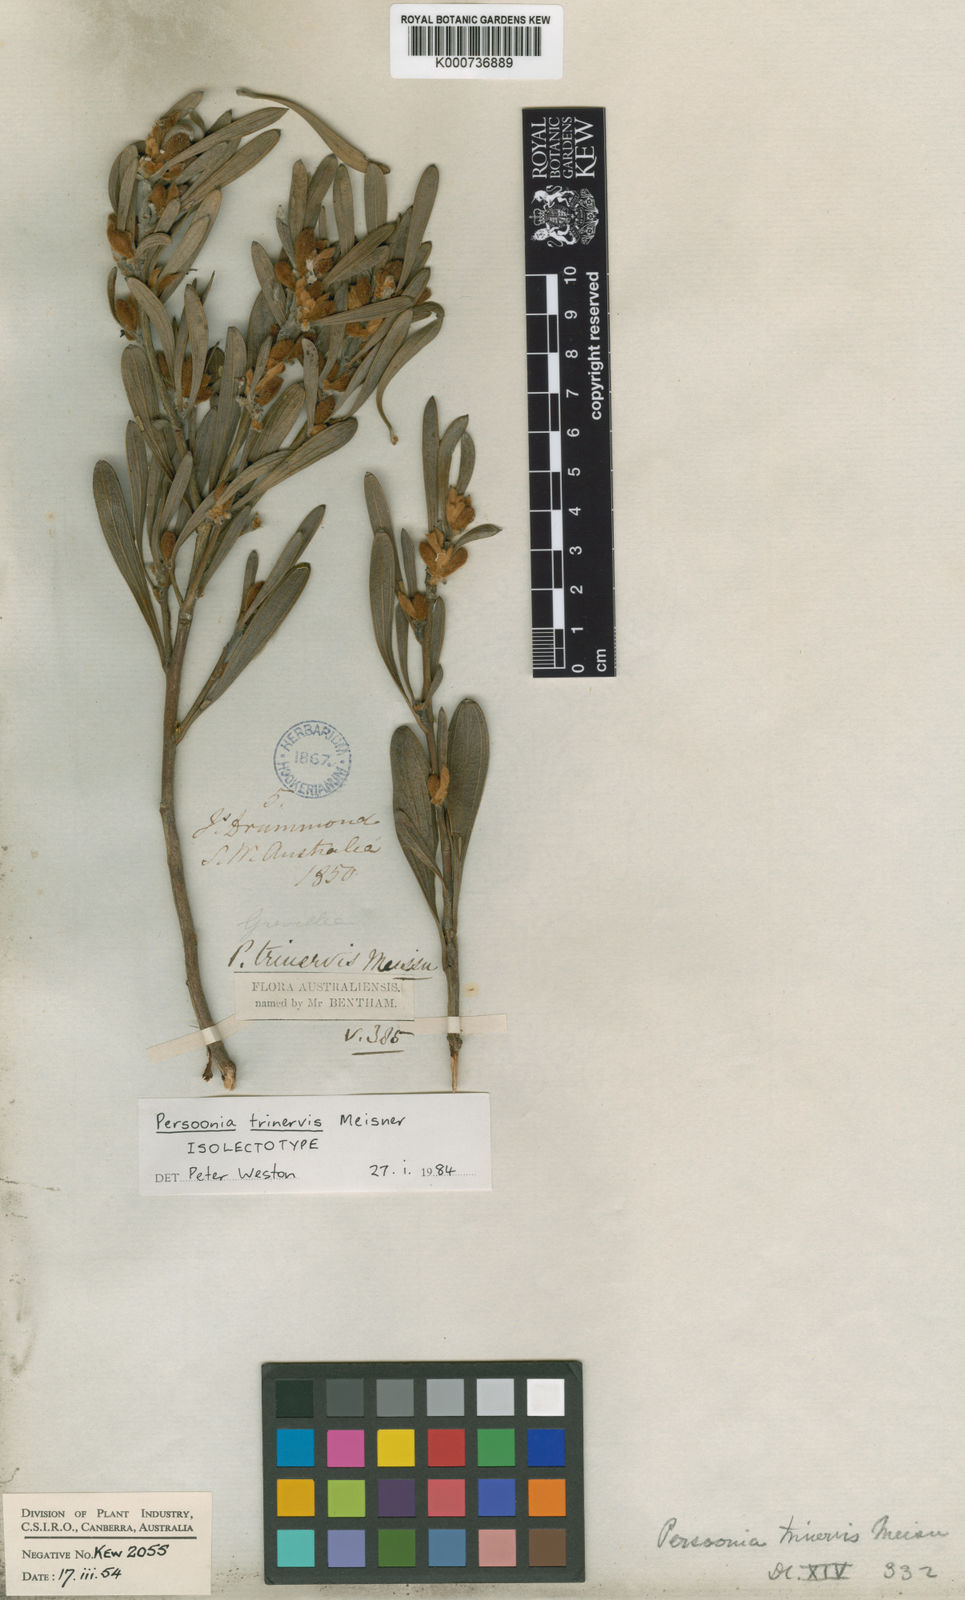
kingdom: Plantae
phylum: Tracheophyta
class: Magnoliopsida
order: Proteales
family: Proteaceae
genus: Persoonia
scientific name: Persoonia trinervis
